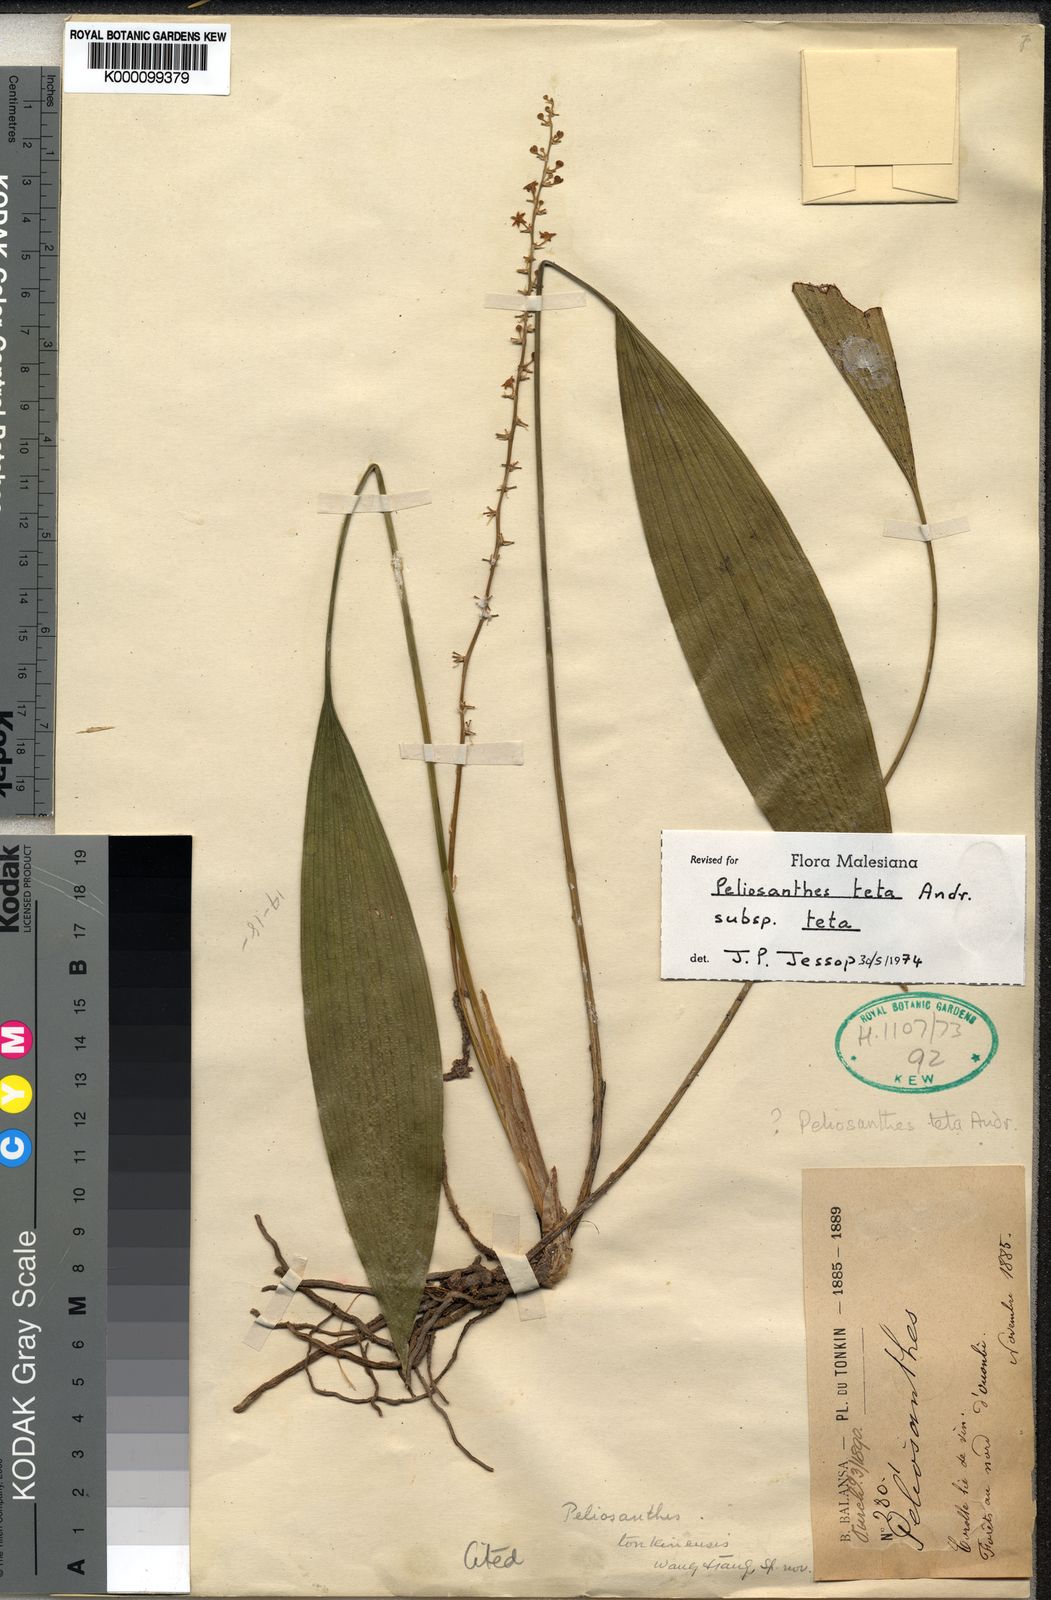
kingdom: Plantae
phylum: Tracheophyta
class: Liliopsida
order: Asparagales
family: Asparagaceae
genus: Peliosanthes
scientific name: Peliosanthes teta
